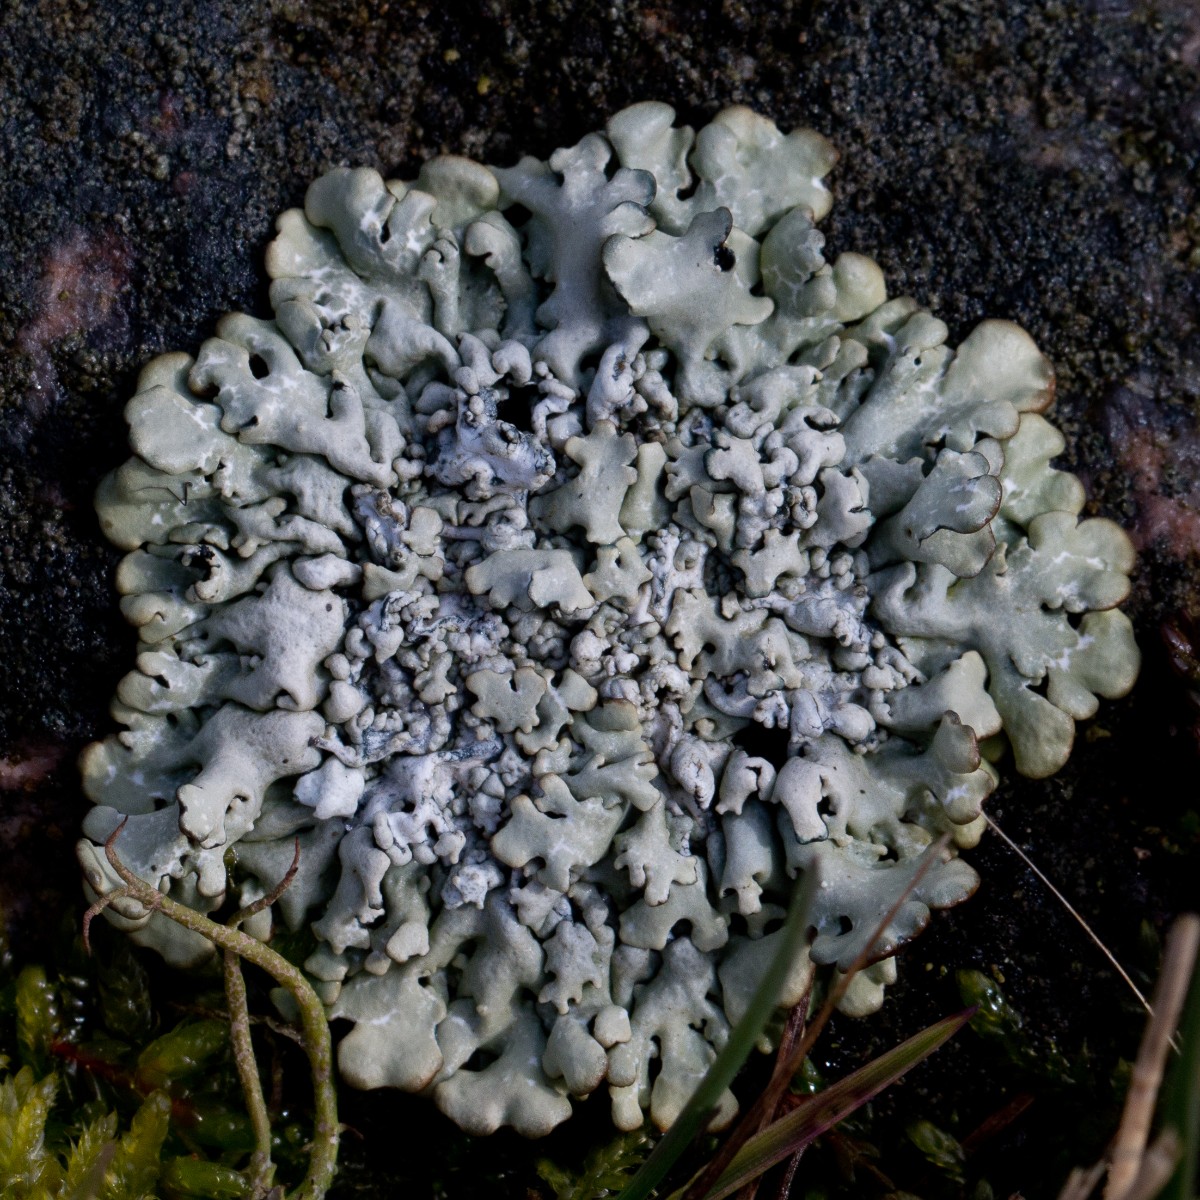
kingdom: Fungi
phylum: Ascomycota
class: Lecanoromycetes
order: Lecanorales
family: Parmeliaceae
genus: Hypogymnia
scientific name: Hypogymnia physodes
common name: almindelig kvistlav
